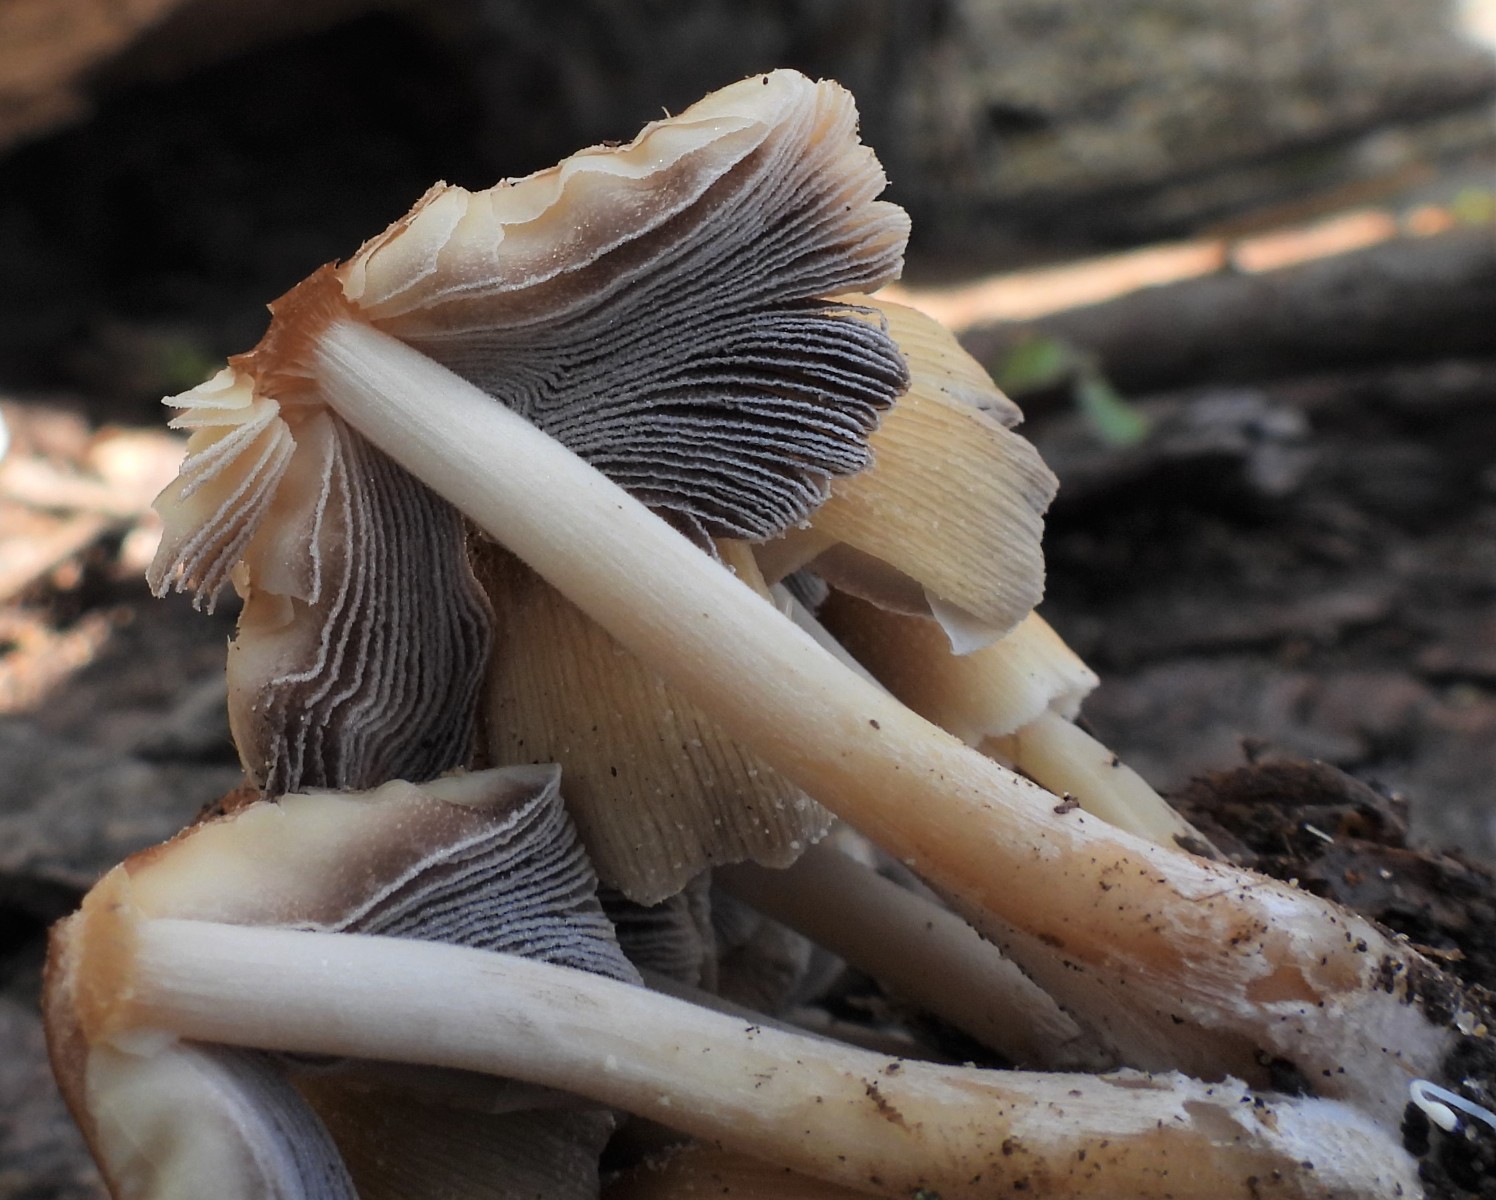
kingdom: Fungi
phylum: Basidiomycota
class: Agaricomycetes
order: Agaricales
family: Psathyrellaceae
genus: Coprinellus
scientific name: Coprinellus micaceus
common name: glimmer-blækhat
